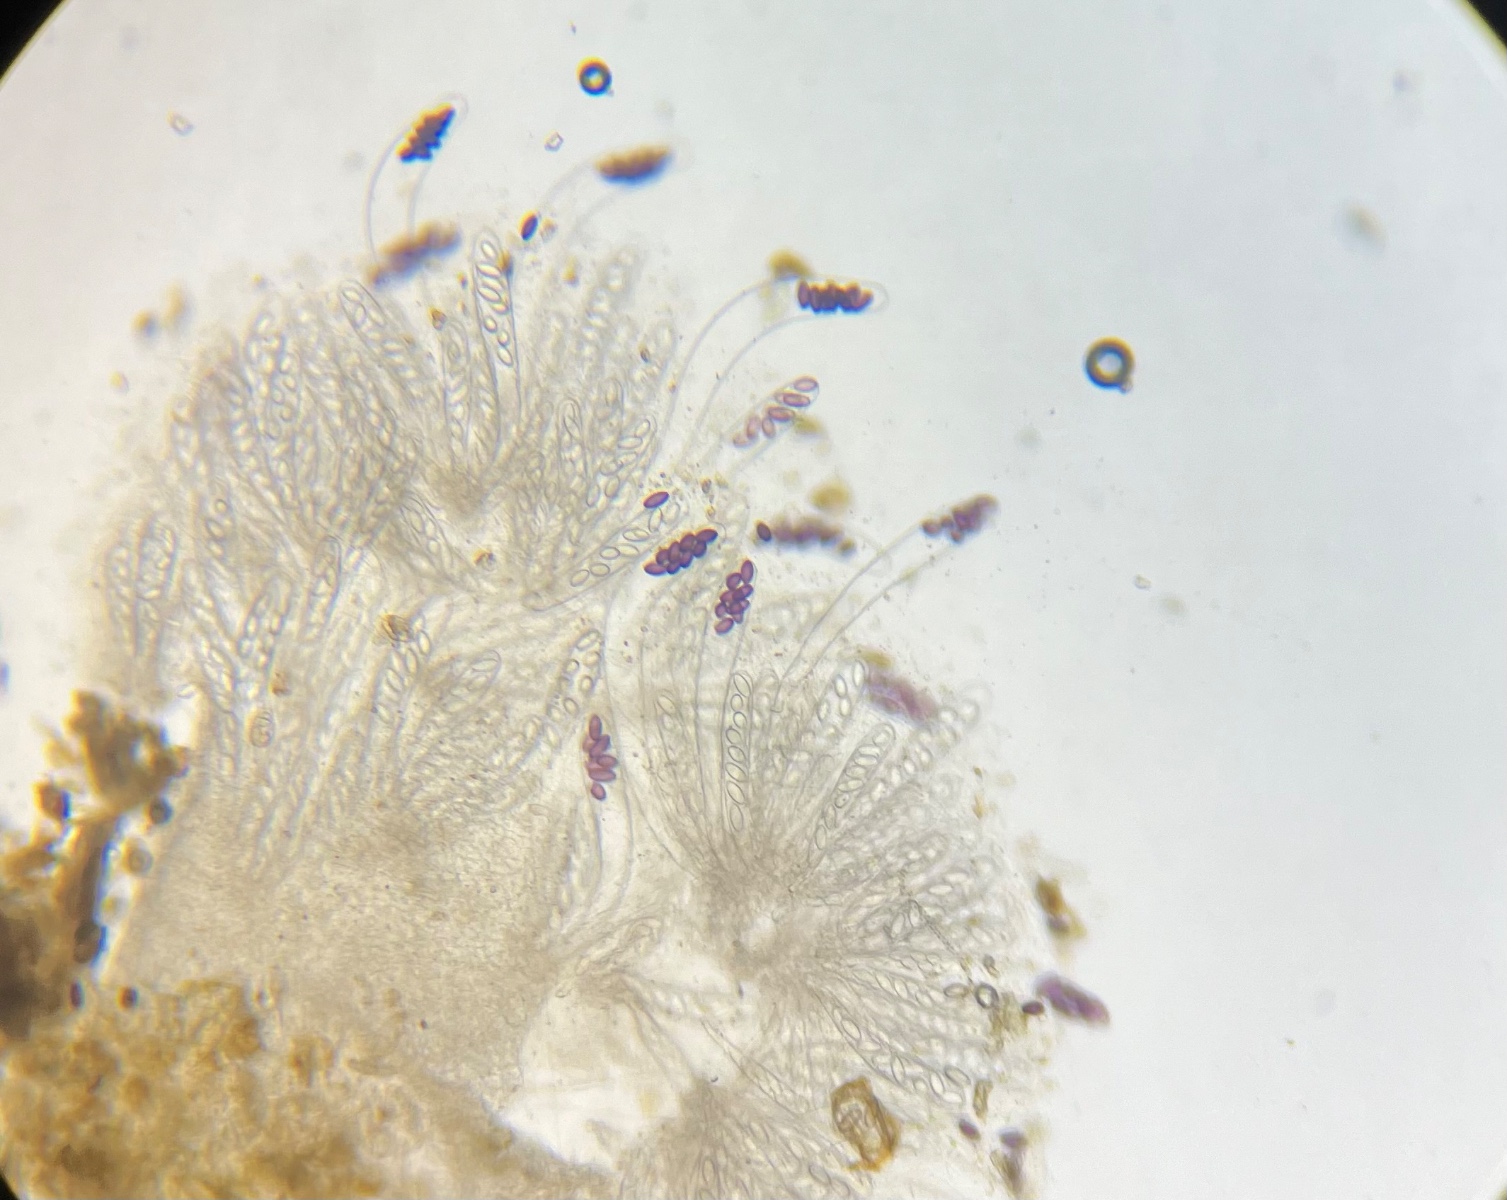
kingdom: Fungi
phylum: Ascomycota
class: Pezizomycetes
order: Pezizales
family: Ascobolaceae
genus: Ascobolus
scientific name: Ascobolus albidus
